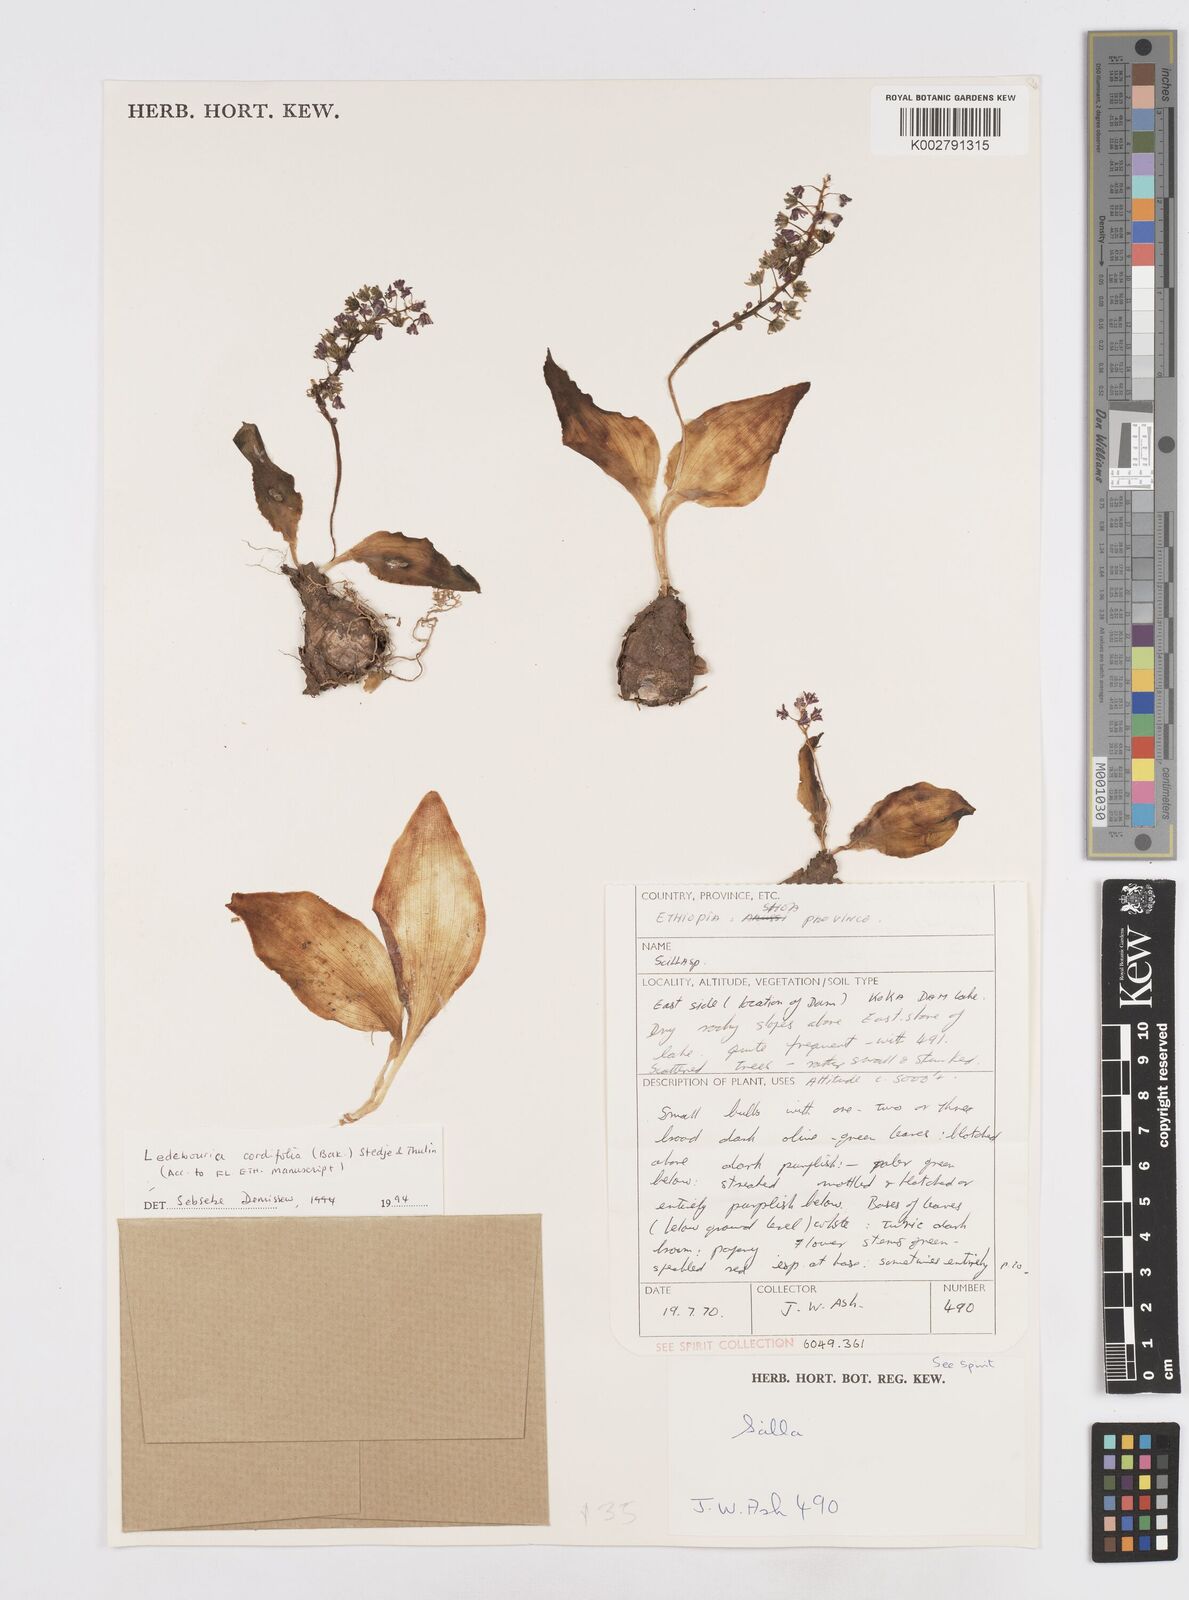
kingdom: Plantae
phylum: Tracheophyta
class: Liliopsida
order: Asparagales
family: Asparagaceae
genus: Ledebouria
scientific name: Ledebouria cordifolia
